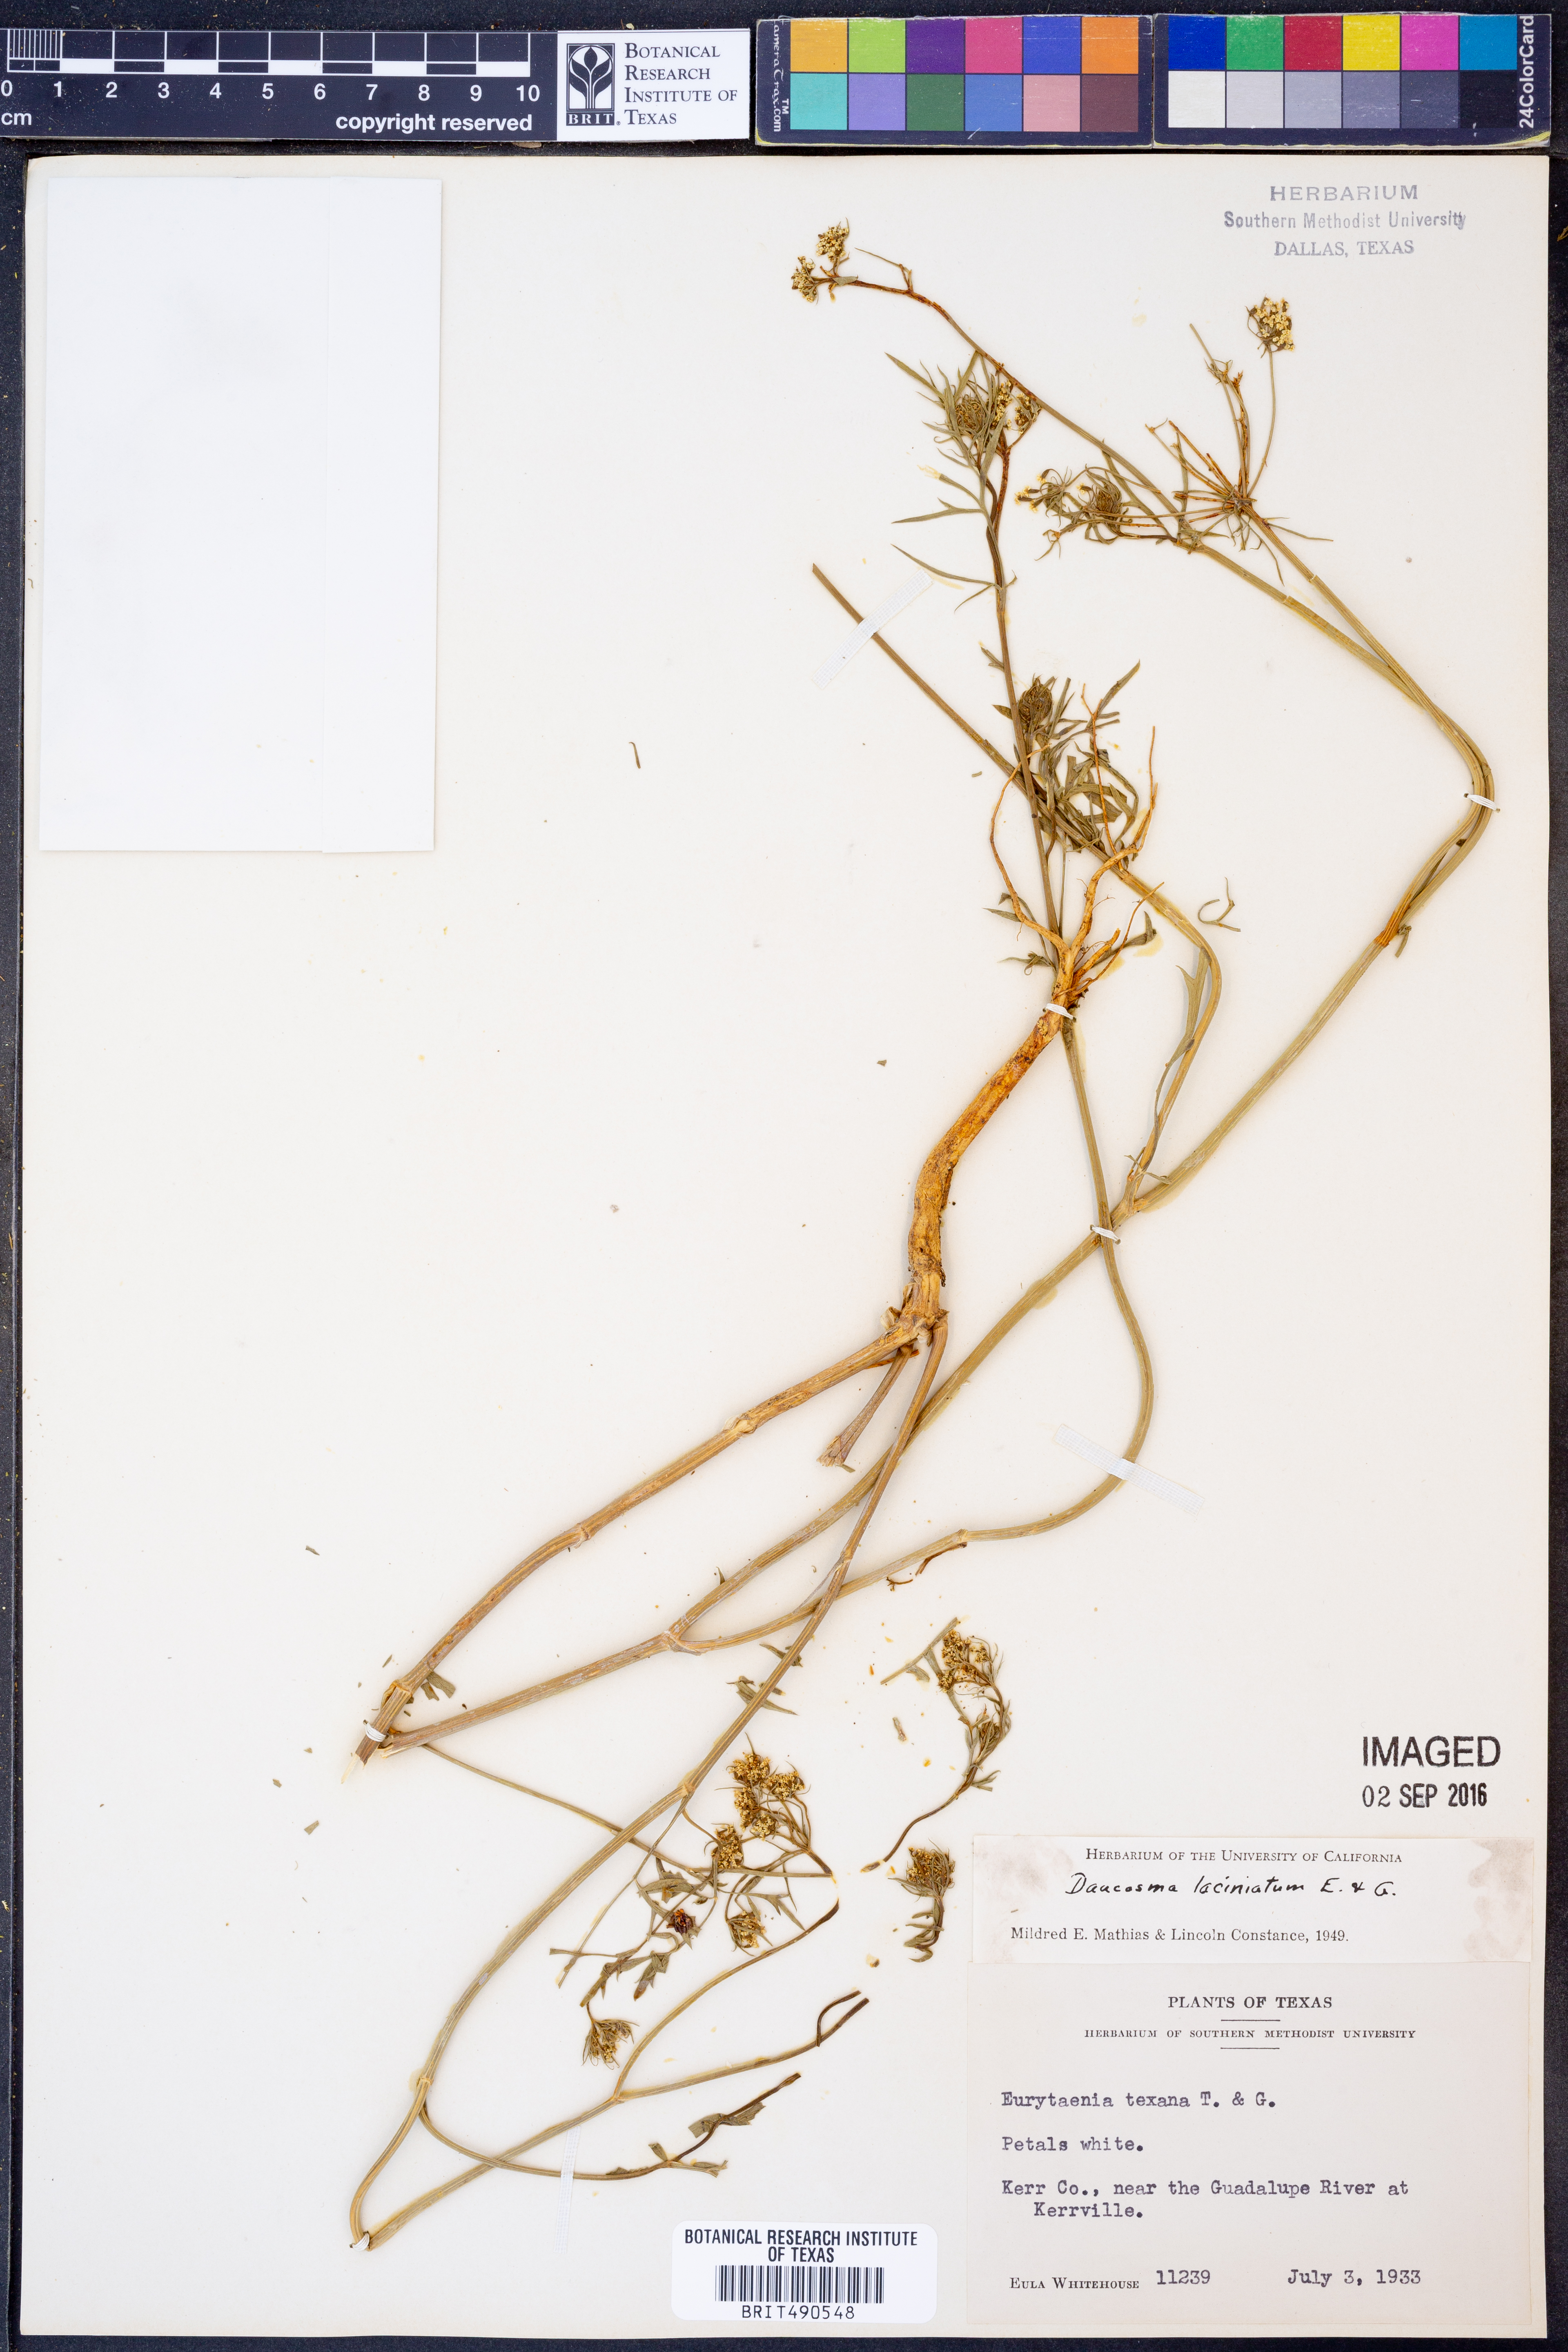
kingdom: Plantae
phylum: Tracheophyta
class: Magnoliopsida
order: Apiales
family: Apiaceae
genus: Daucosma
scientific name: Daucosma laciniatum
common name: Meadow-parasol
